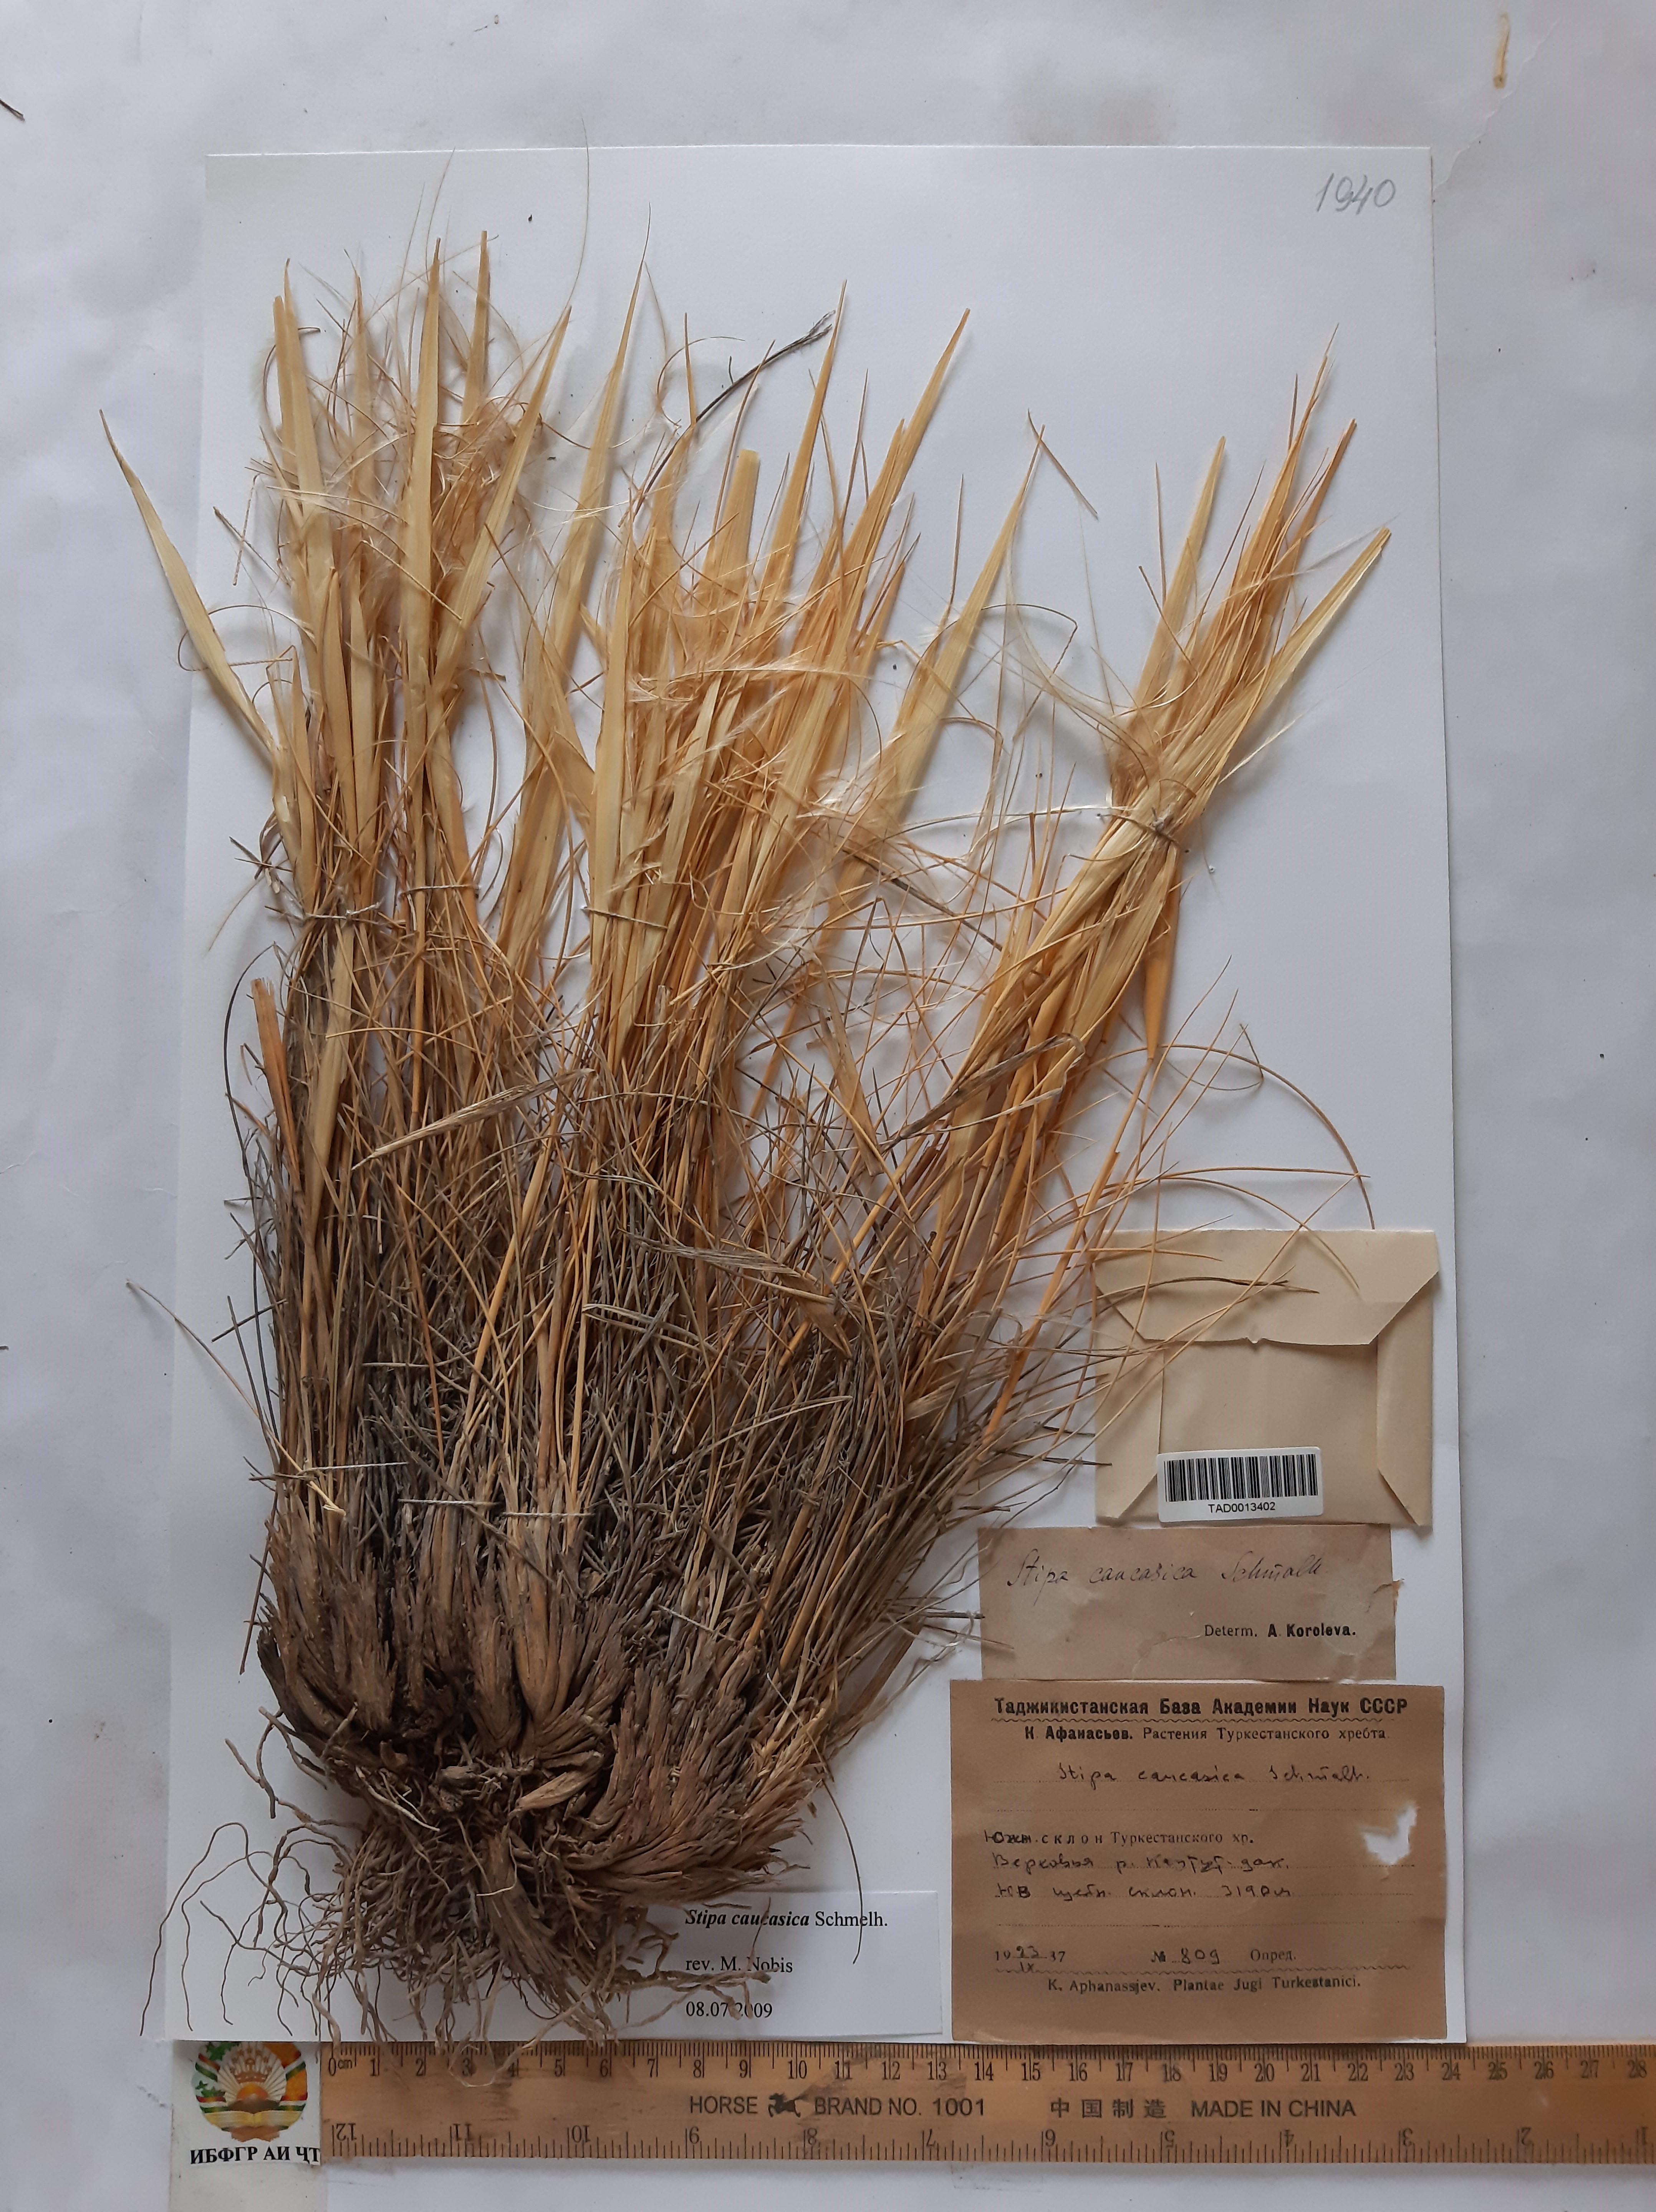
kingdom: Plantae
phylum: Tracheophyta
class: Liliopsida
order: Poales
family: Poaceae
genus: Stipa
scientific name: Stipa caucasica
